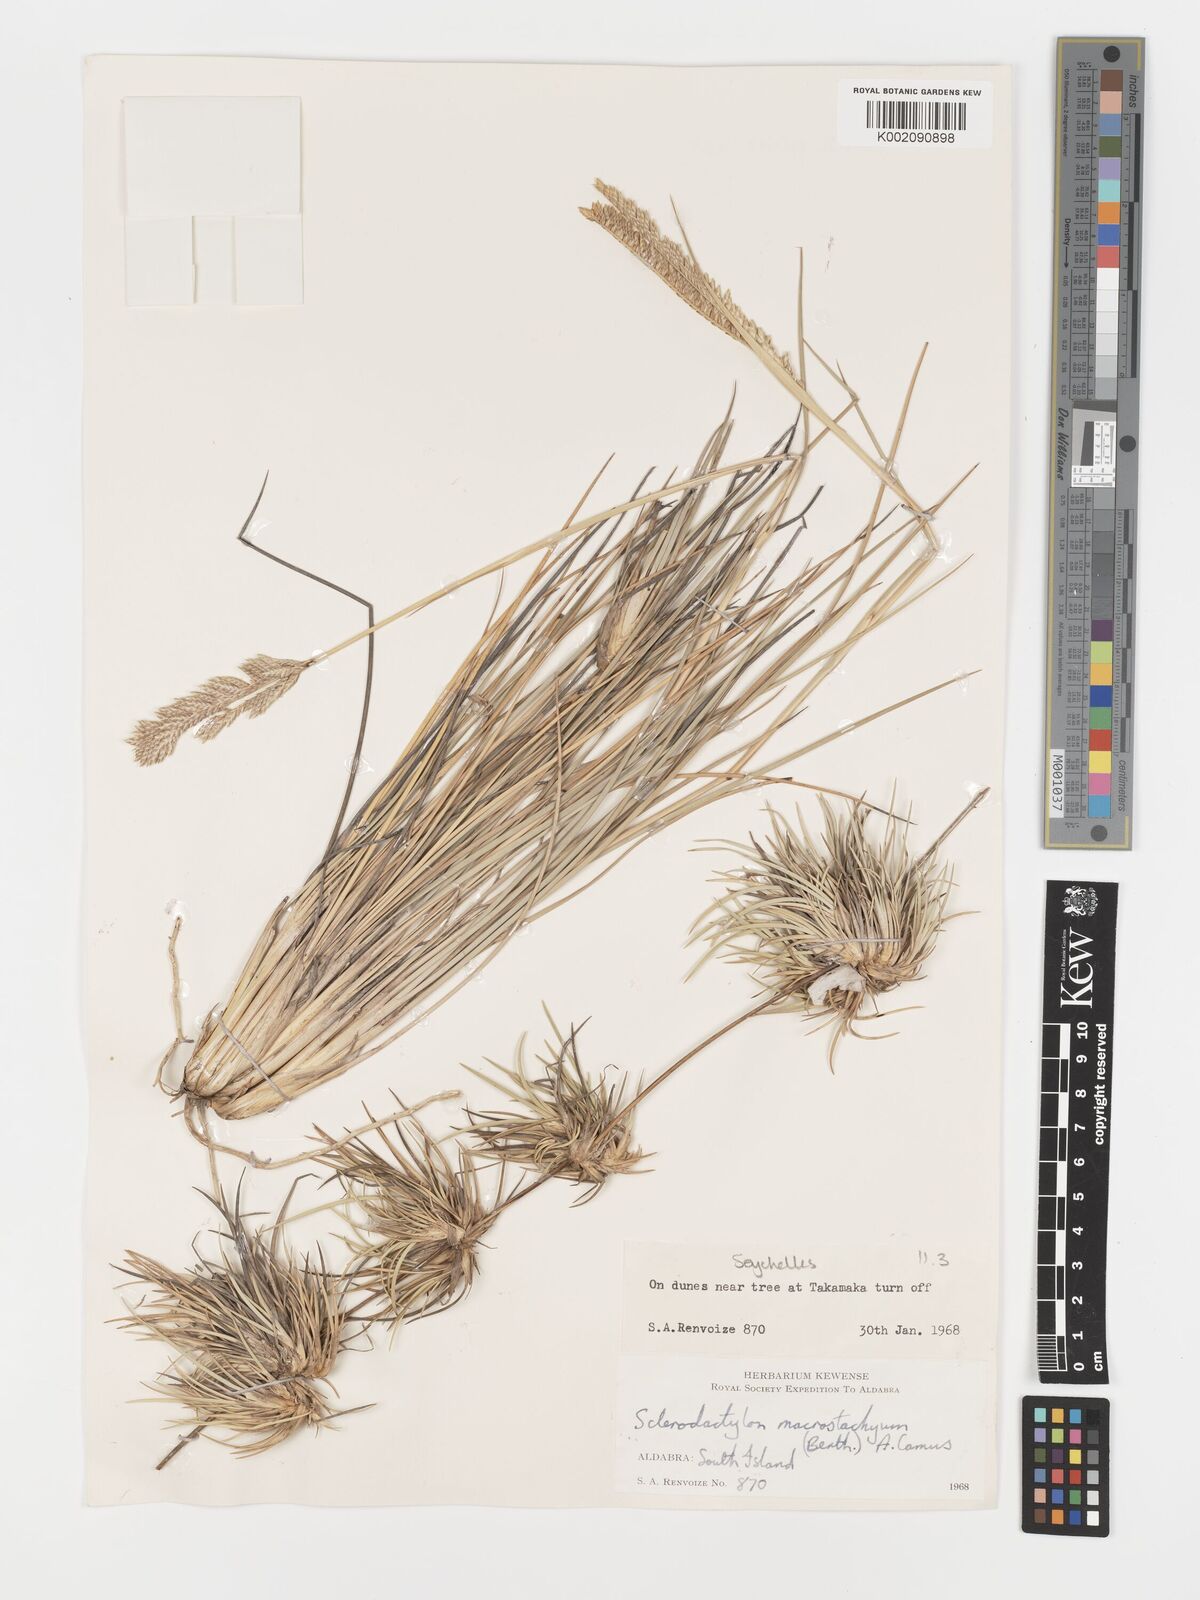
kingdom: Plantae
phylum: Tracheophyta
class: Liliopsida
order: Poales
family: Poaceae
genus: Sclerodactylon
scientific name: Sclerodactylon macrostachyum
